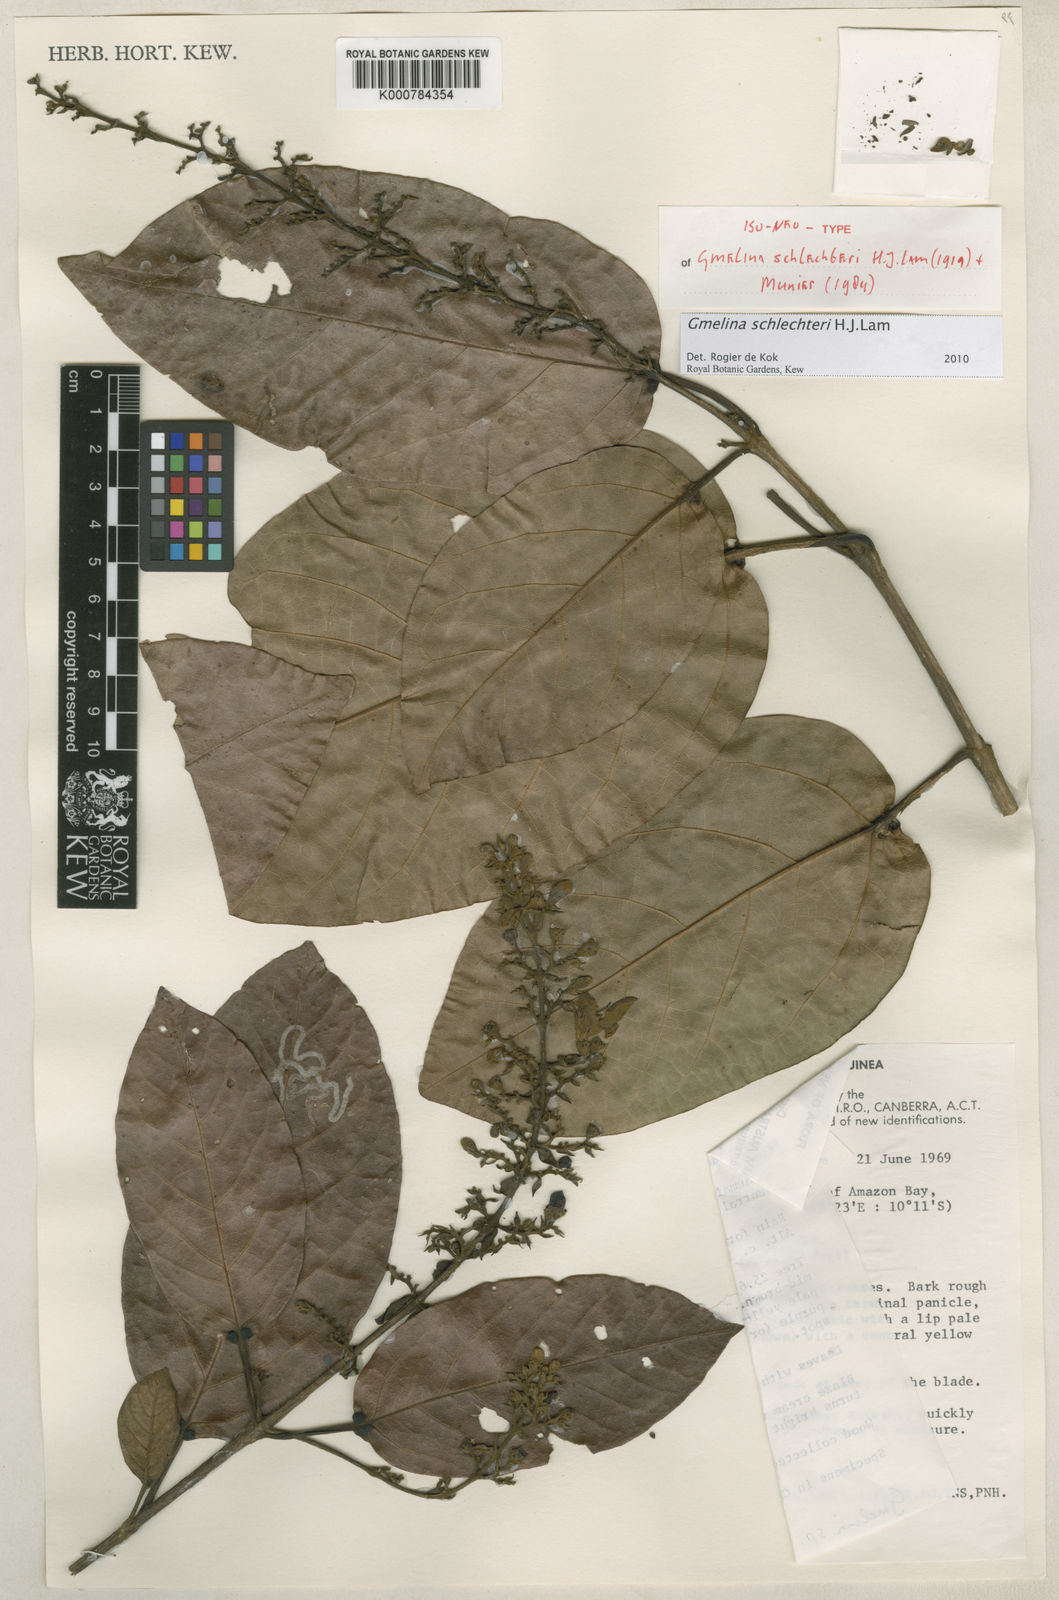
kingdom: Plantae
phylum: Tracheophyta
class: Magnoliopsida
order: Lamiales
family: Lamiaceae
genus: Gmelina
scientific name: Gmelina schlechteri
